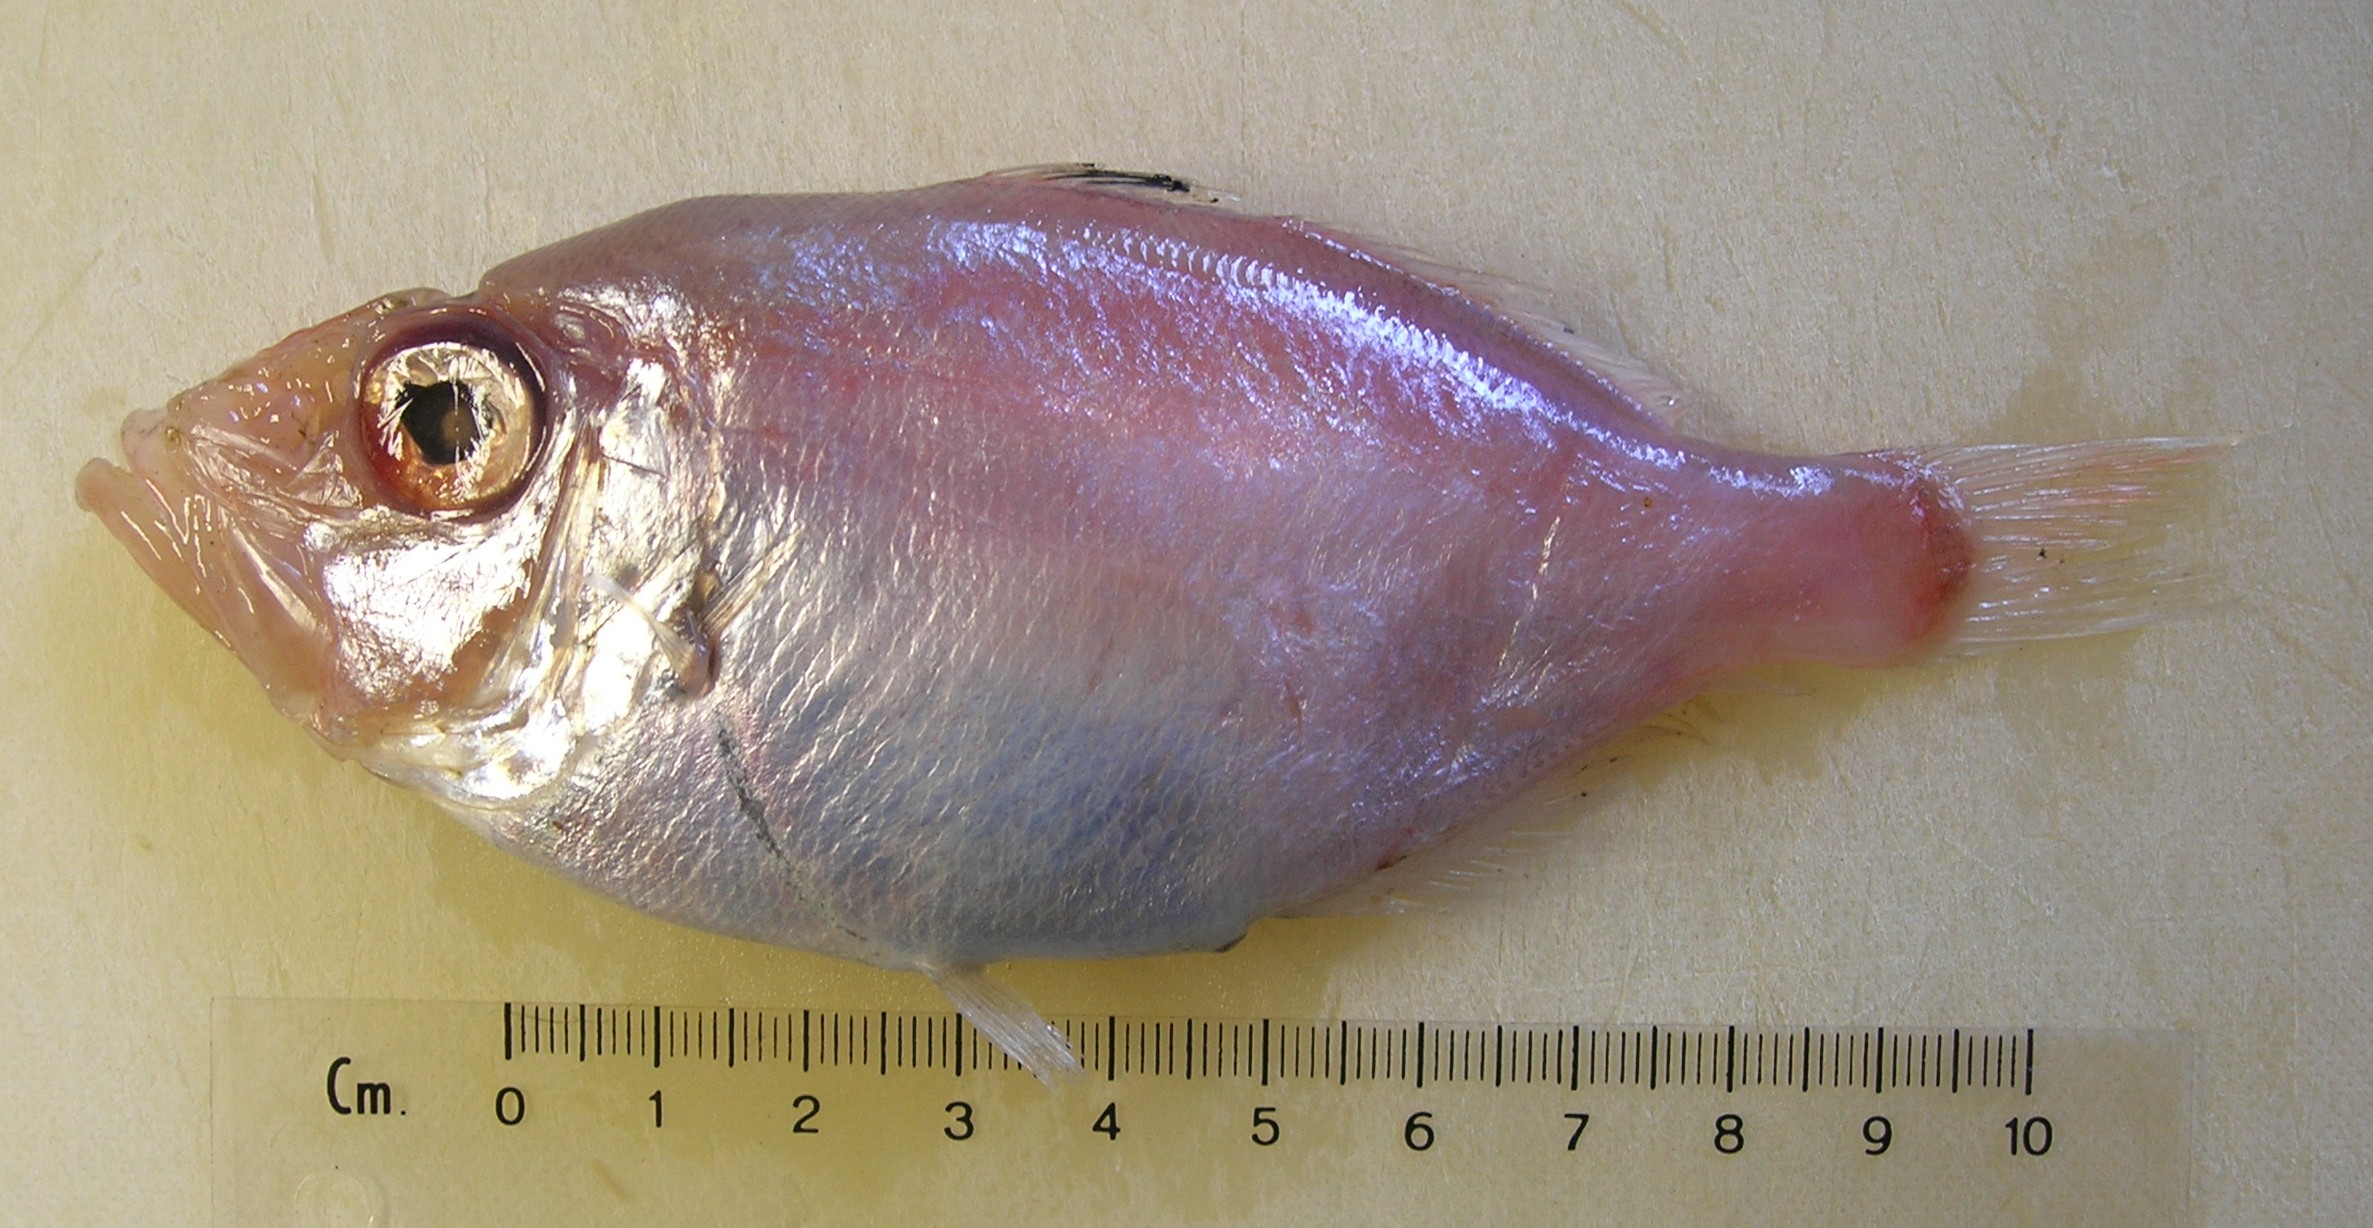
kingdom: Animalia
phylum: Chordata
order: Zeiformes
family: Parazenidae
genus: Parazen
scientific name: Parazen pacificus
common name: Parazen
